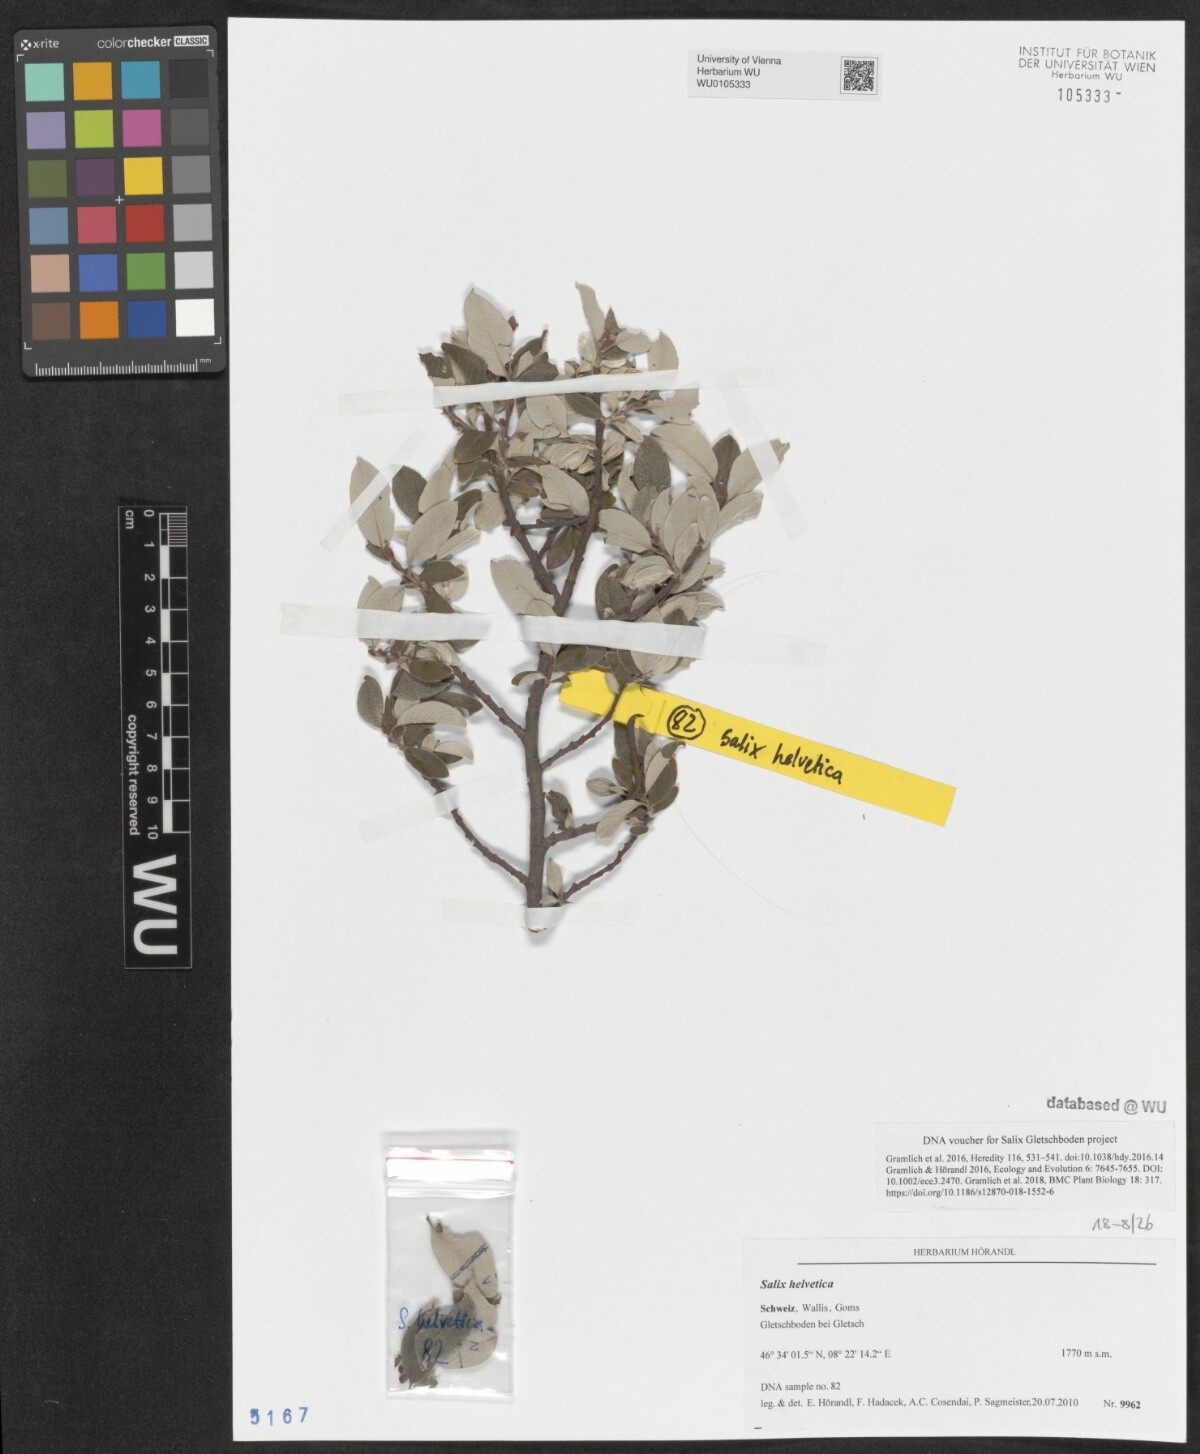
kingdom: Plantae
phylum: Tracheophyta
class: Magnoliopsida
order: Malpighiales
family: Salicaceae
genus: Salix
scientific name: Salix helvetica
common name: Swiss willow
